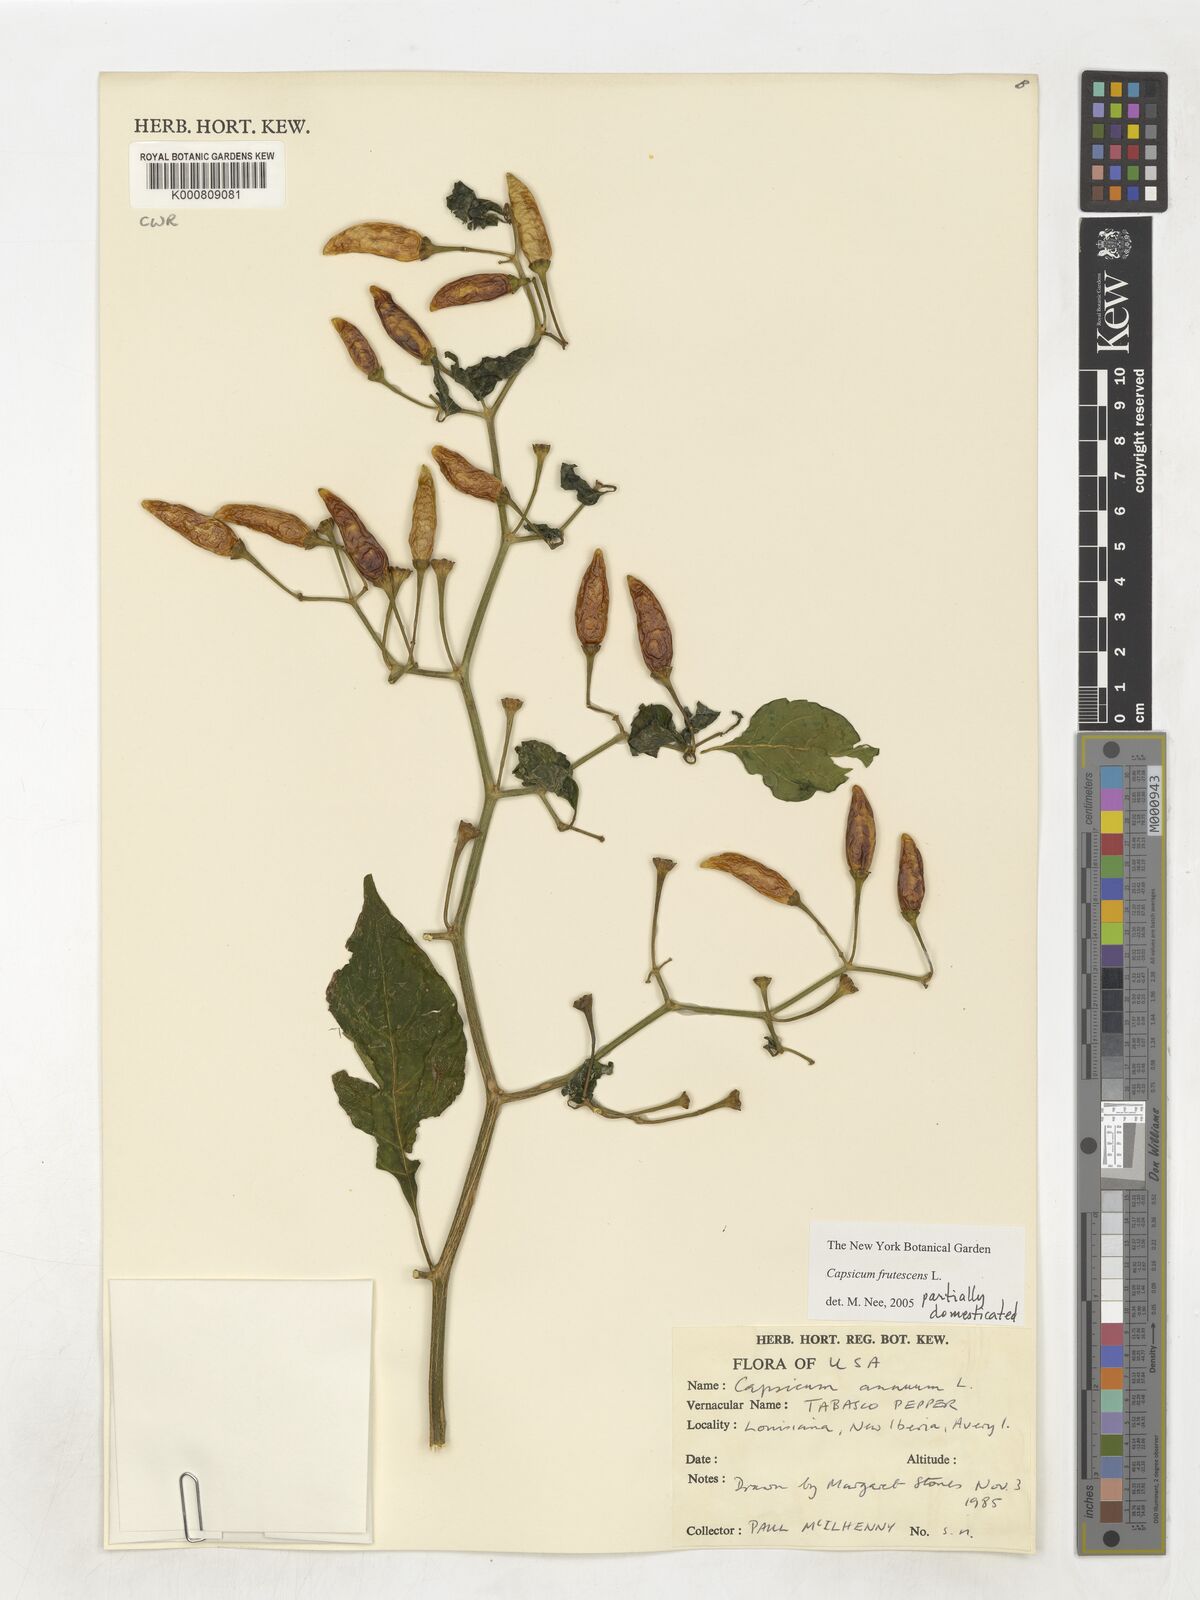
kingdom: Plantae
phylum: Tracheophyta
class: Magnoliopsida
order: Solanales
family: Solanaceae
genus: Capsicum
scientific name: Capsicum frutescens
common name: Bird pepper
